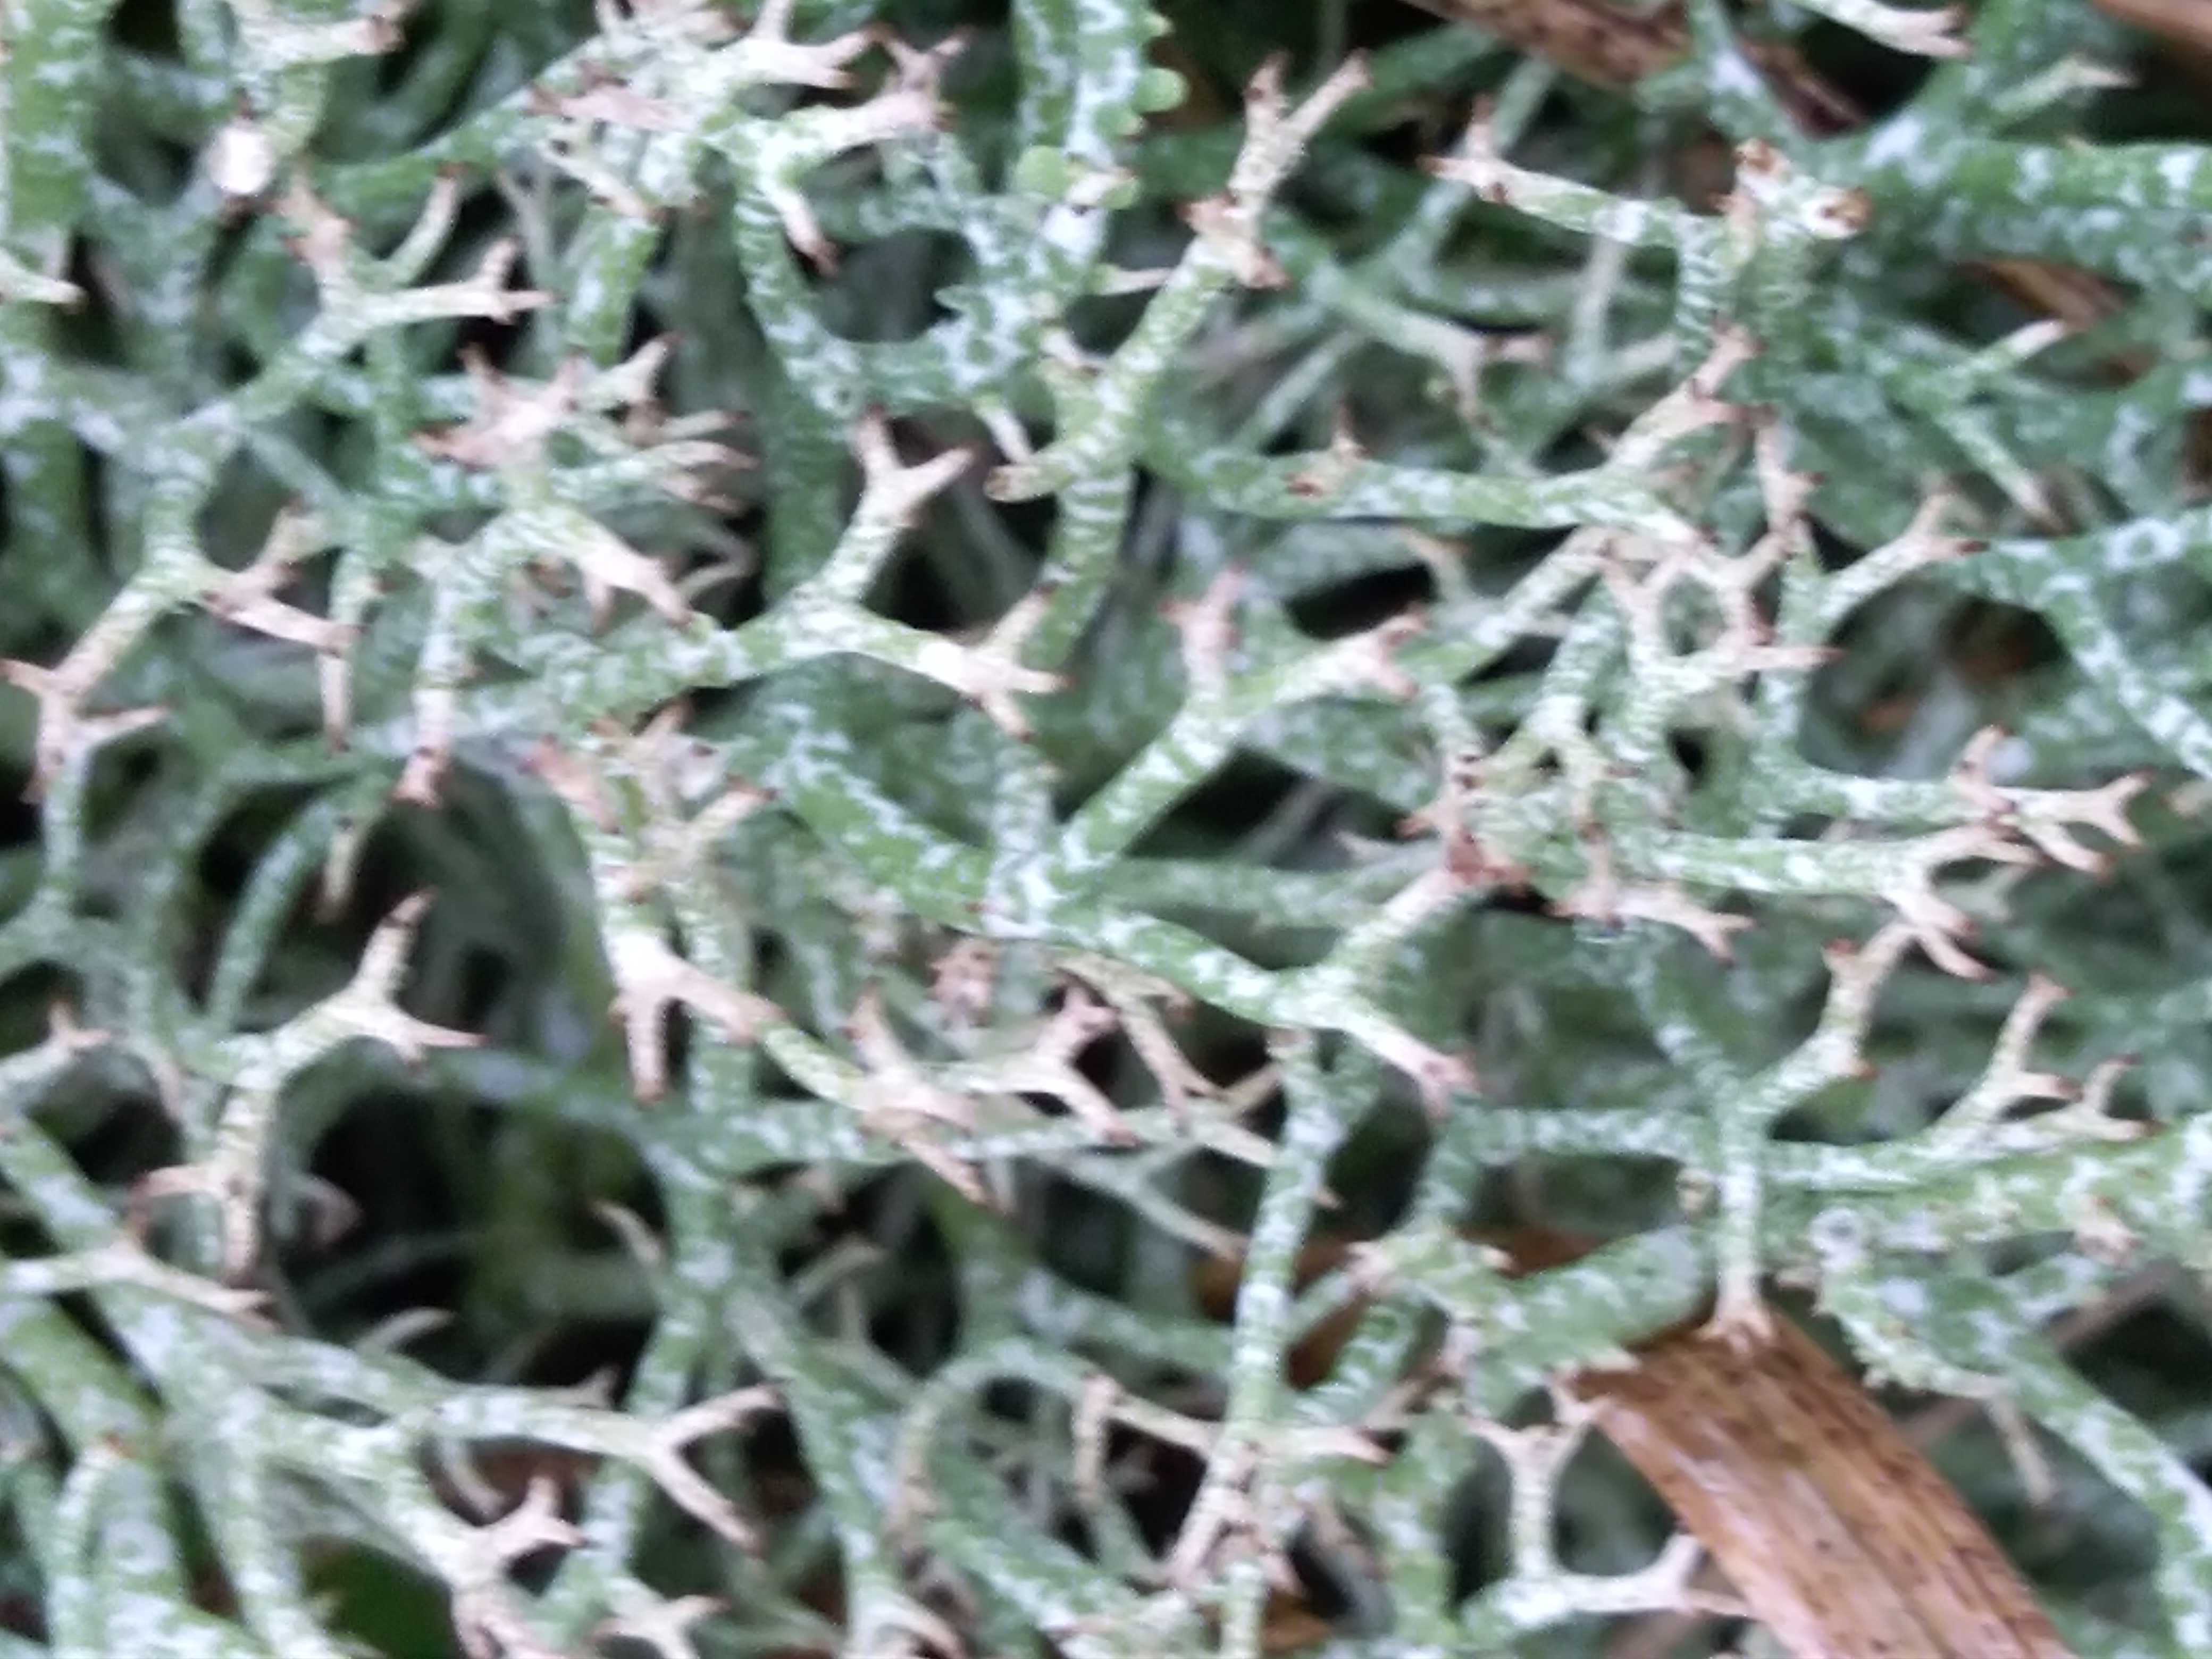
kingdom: Fungi
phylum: Ascomycota
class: Lecanoromycetes
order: Lecanorales
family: Cladoniaceae
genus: Cladonia
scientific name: Cladonia rangiformis
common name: spættet bægerlav
